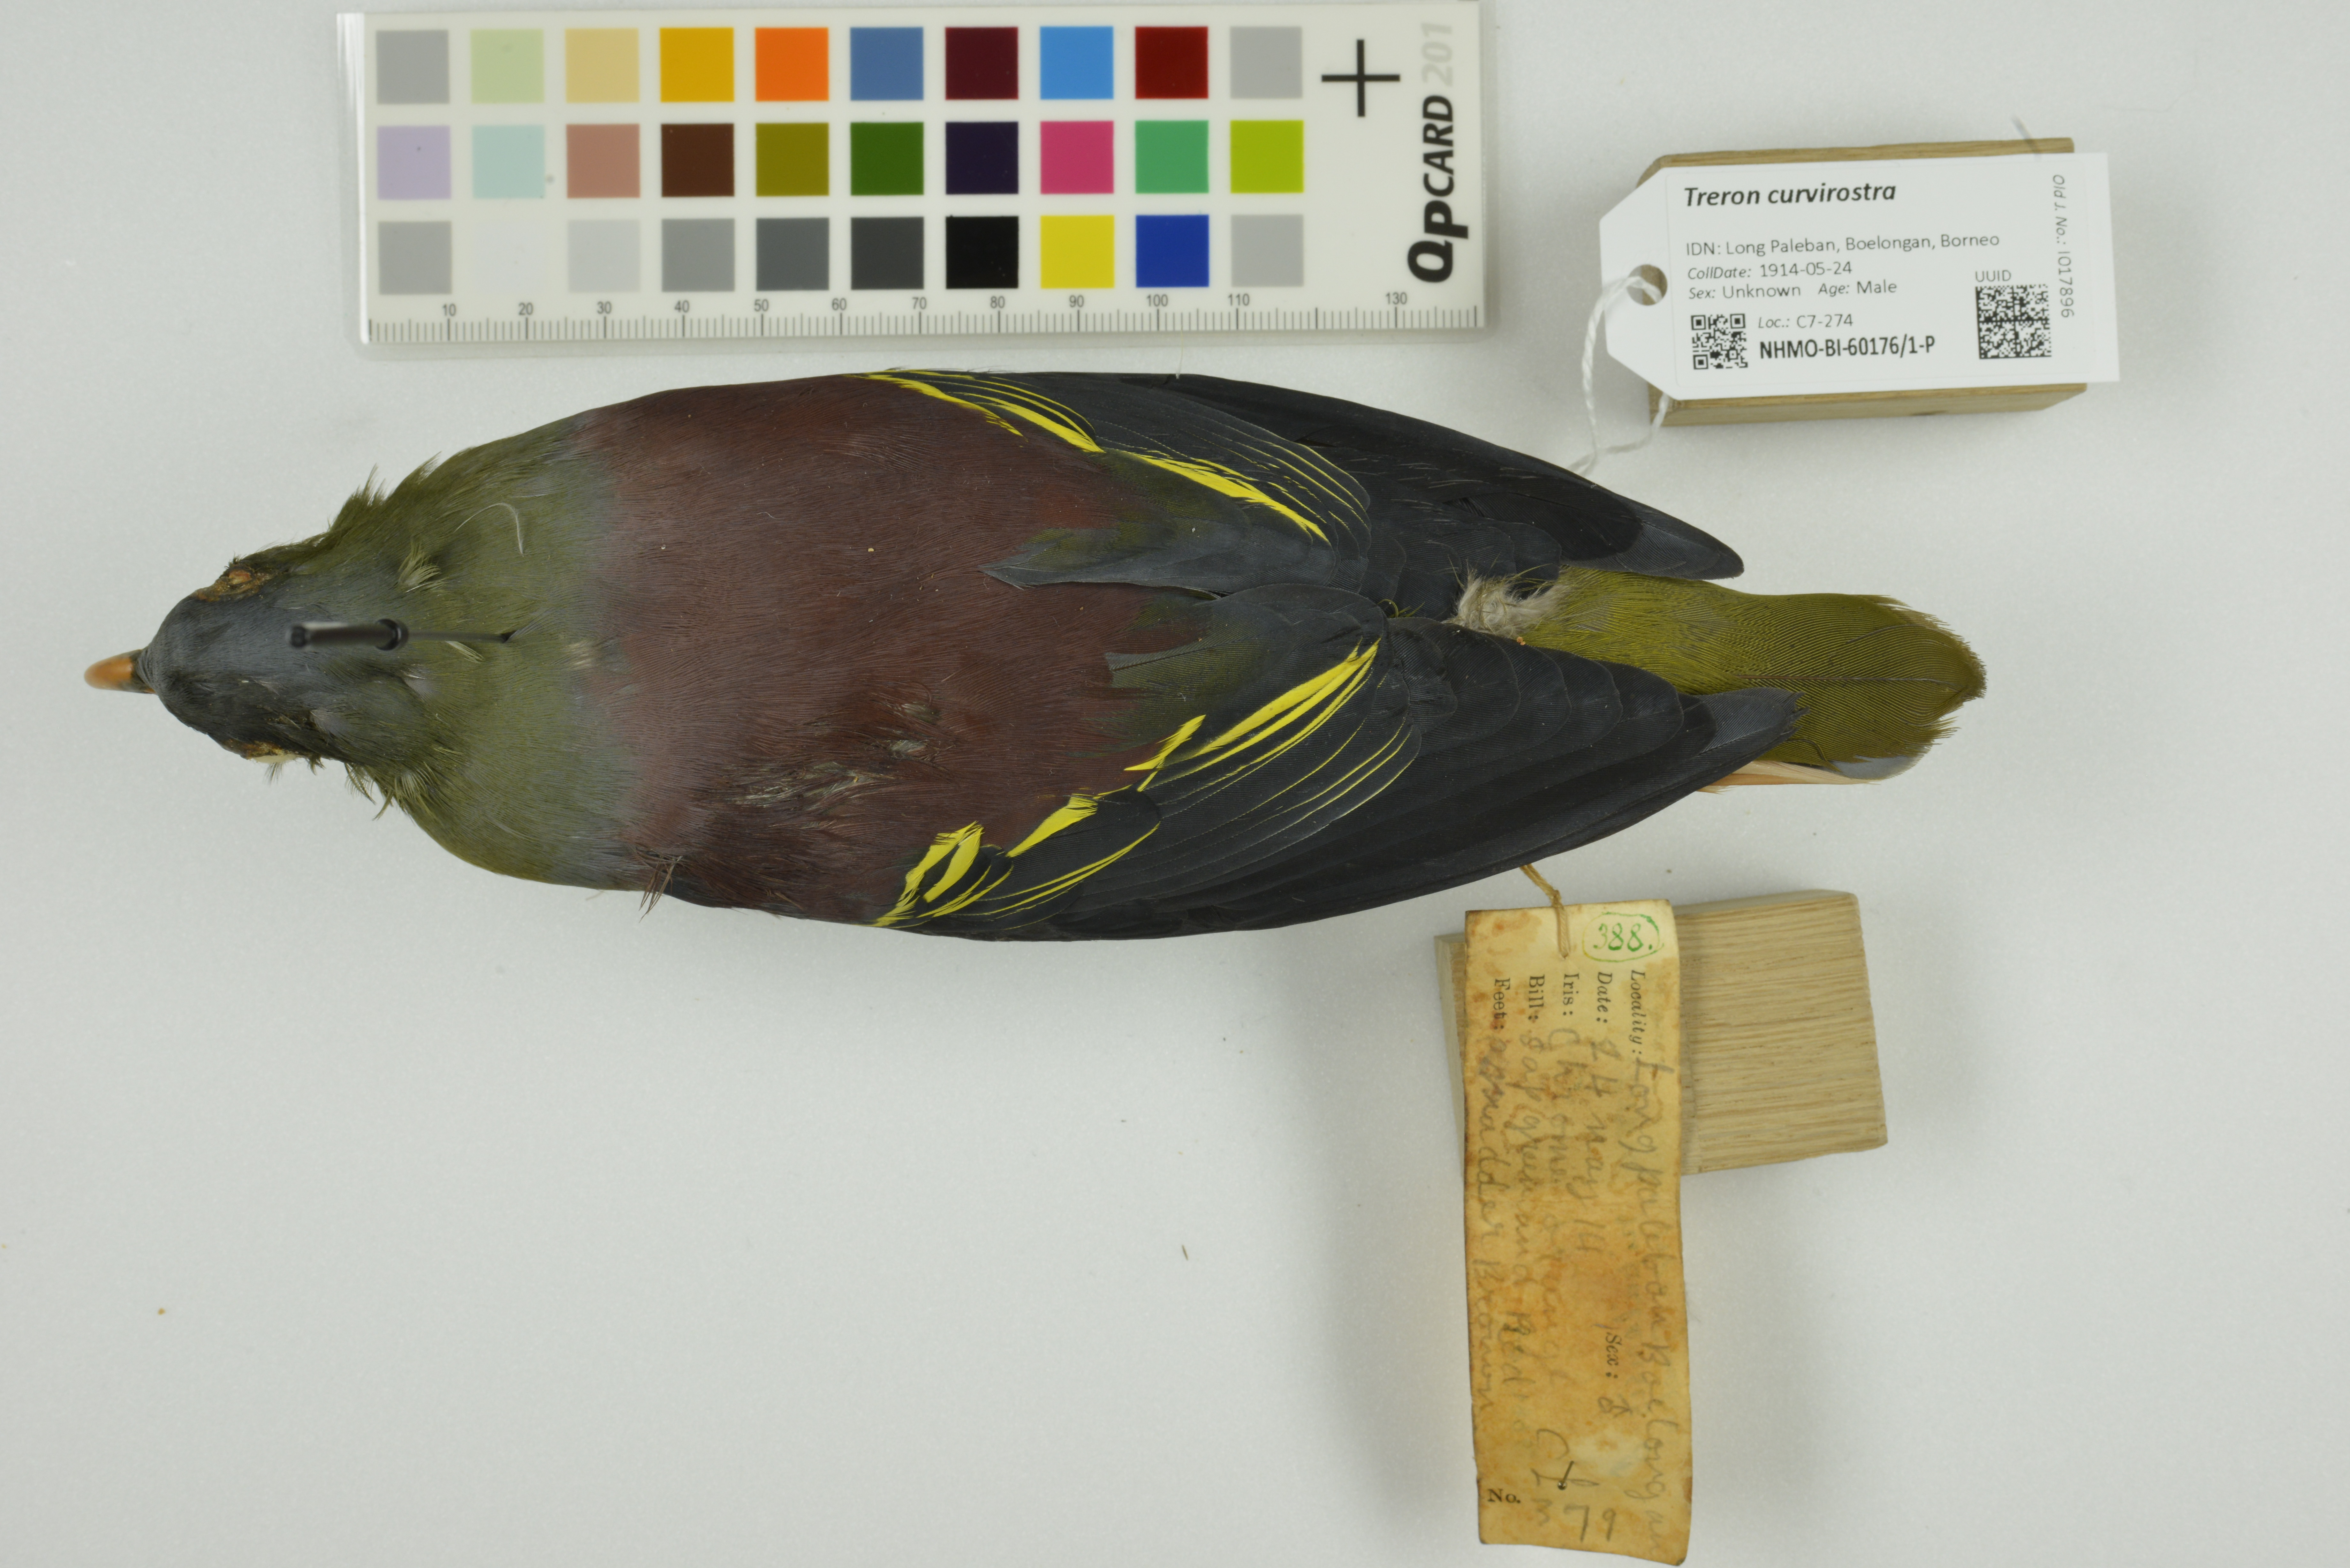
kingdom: Animalia
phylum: Chordata
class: Aves
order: Columbiformes
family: Columbidae
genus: Treron
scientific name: Treron curvirostra
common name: Thick-billed green pigeon
